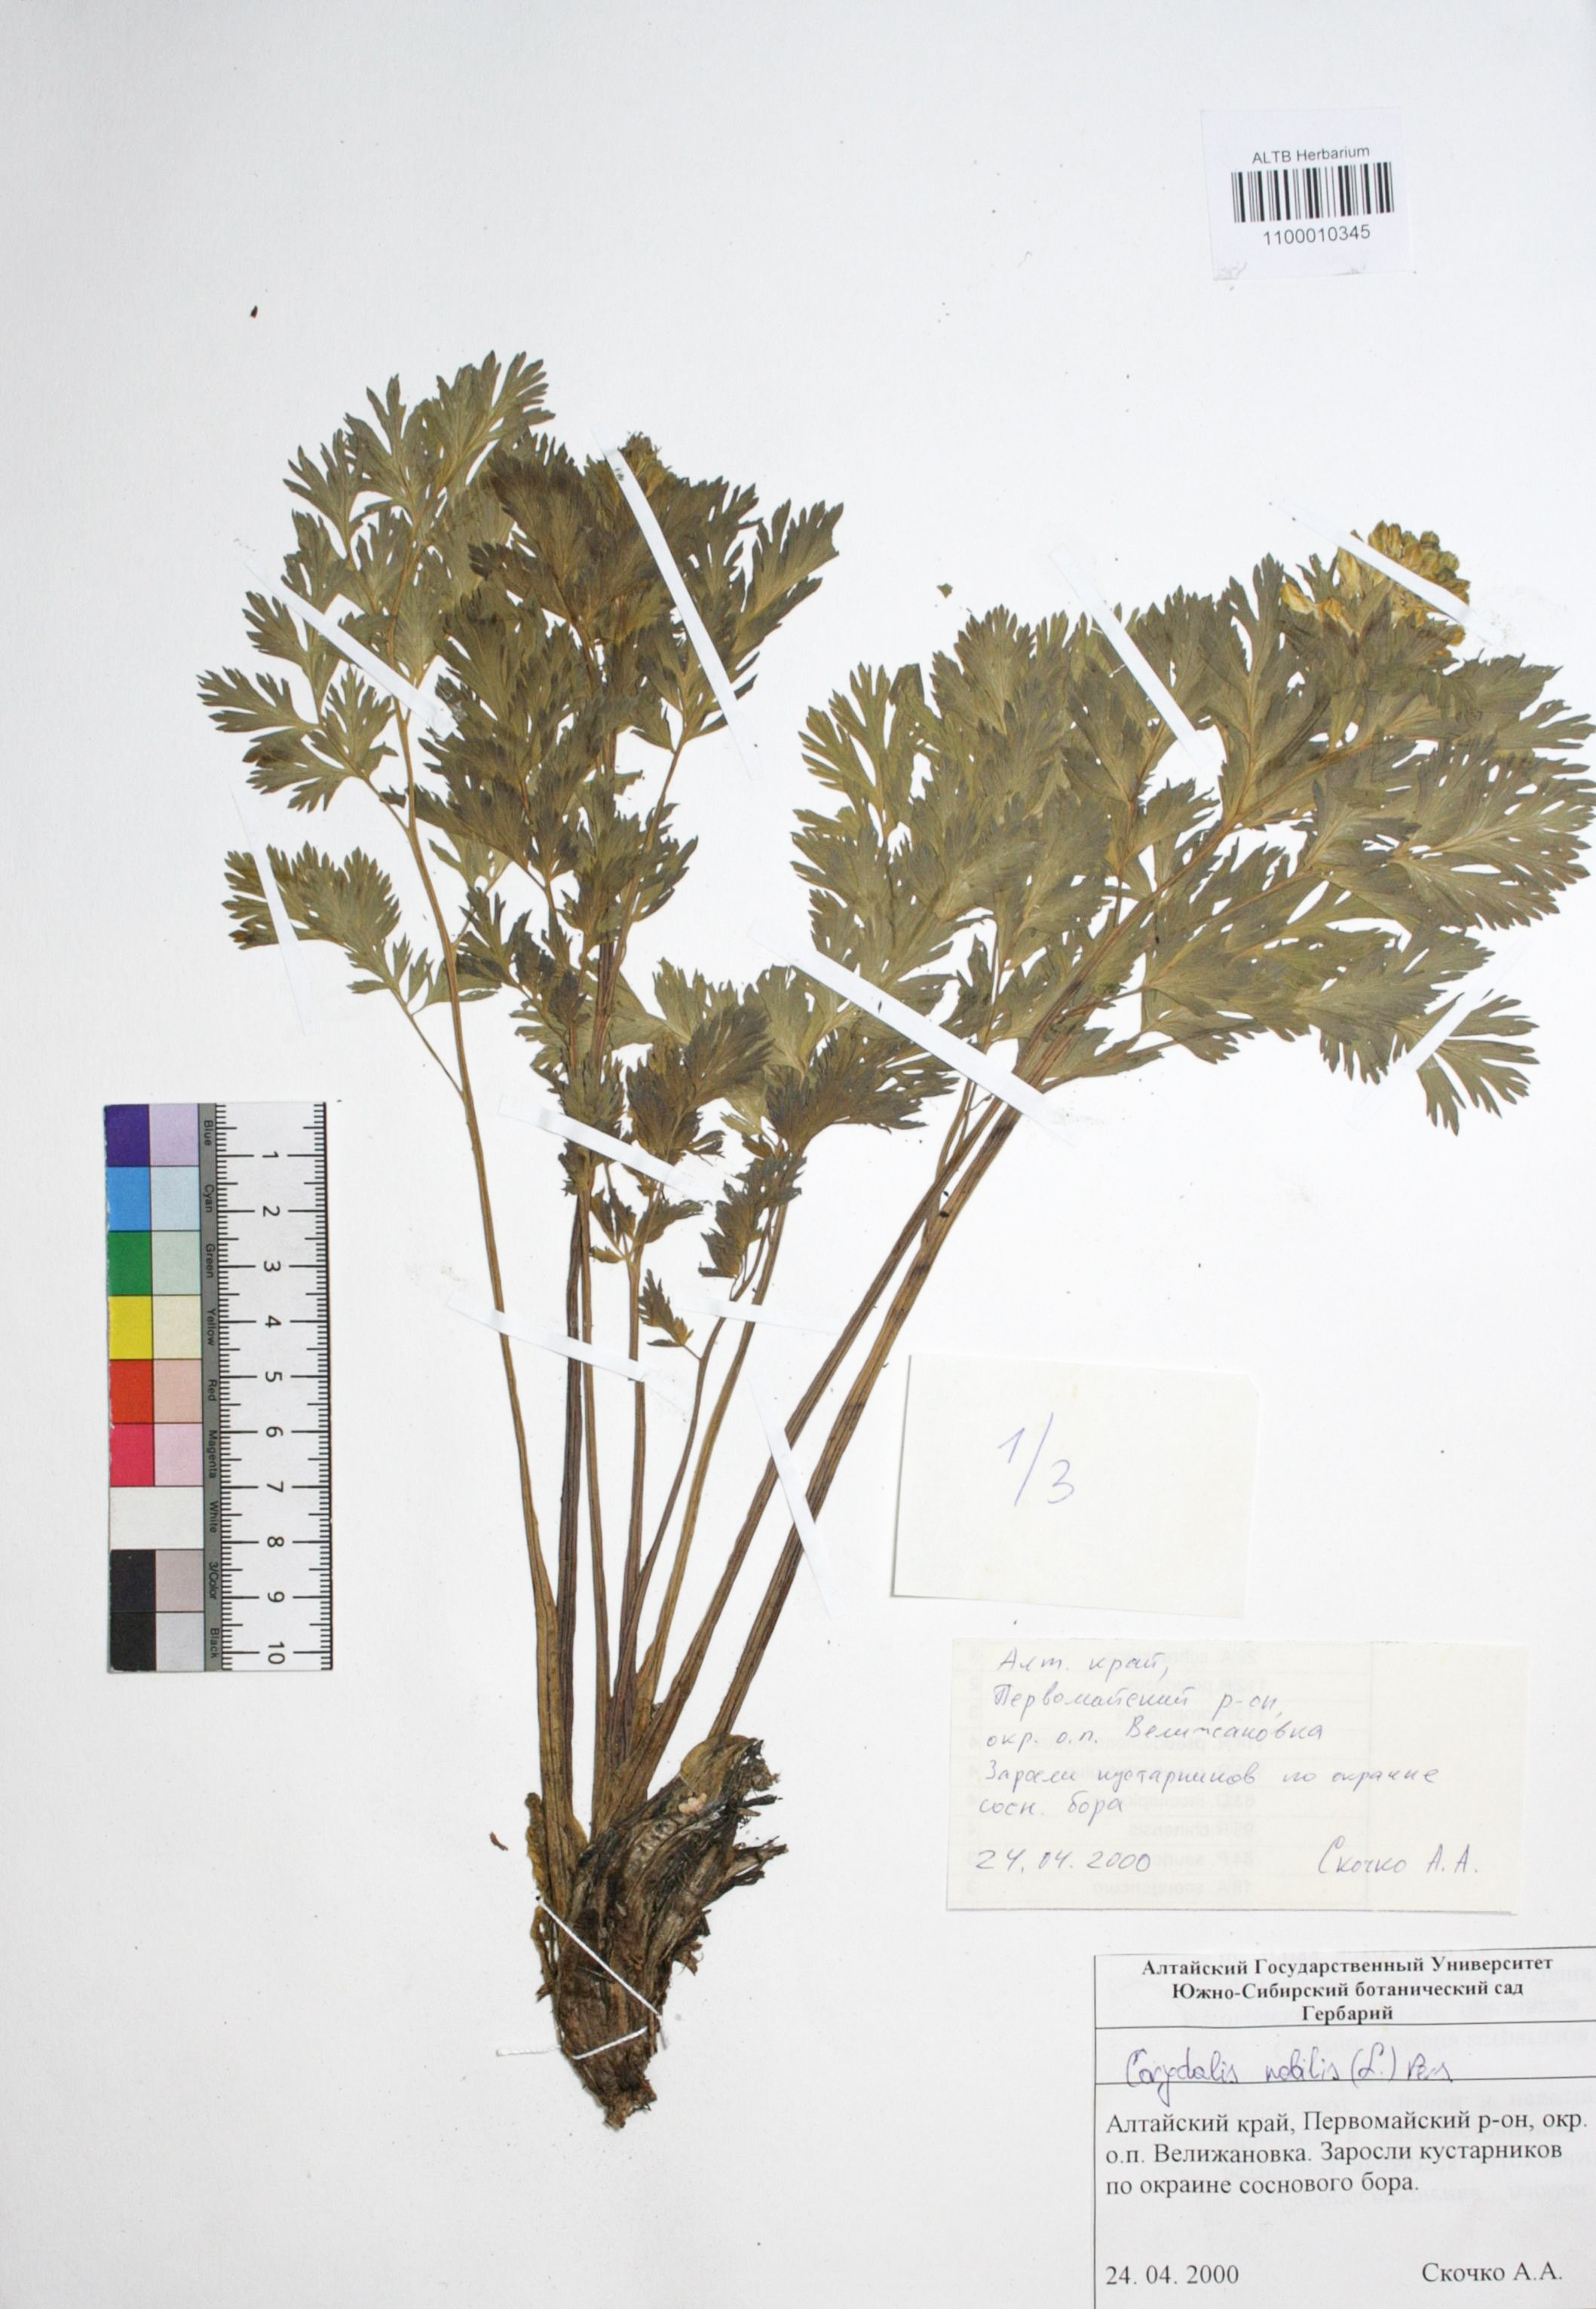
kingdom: Plantae
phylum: Tracheophyta
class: Magnoliopsida
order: Ranunculales
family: Papaveraceae
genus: Corydalis
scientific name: Corydalis nobilis
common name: Siberian corydalis
